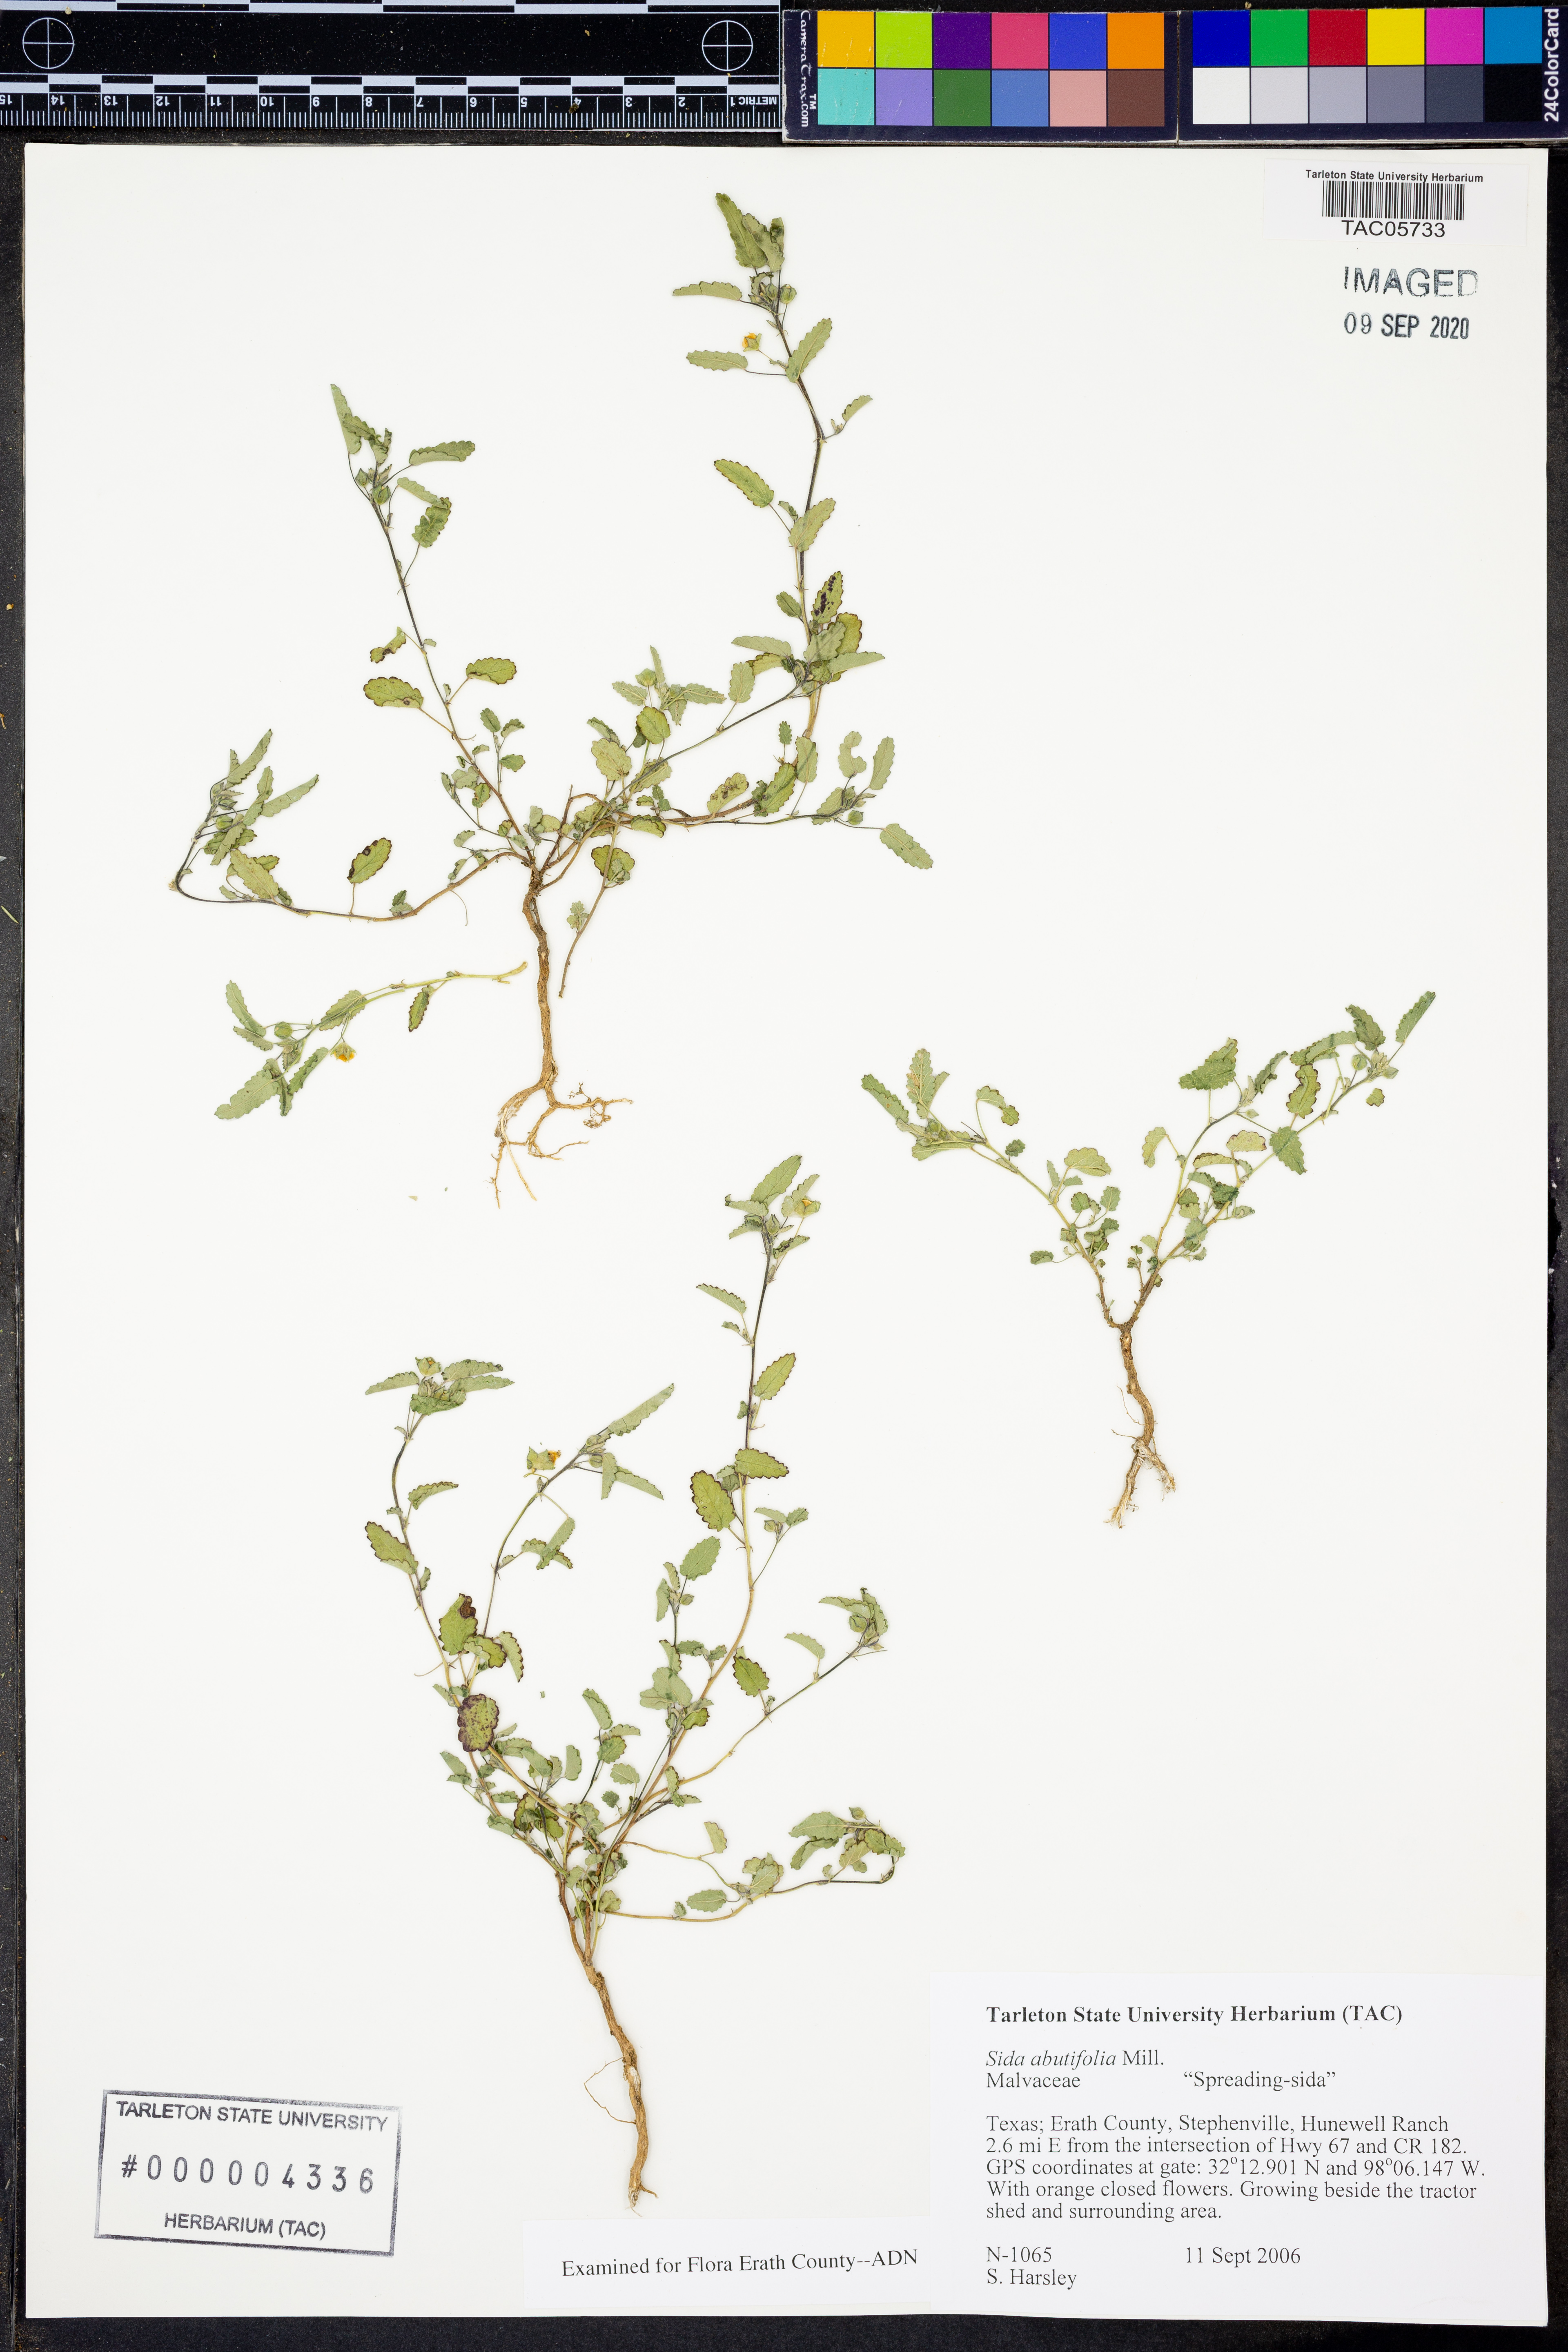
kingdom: Plantae
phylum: Tracheophyta
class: Magnoliopsida
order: Malvales
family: Malvaceae
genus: Sida
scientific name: Sida abutifolia
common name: Spreading fantails
